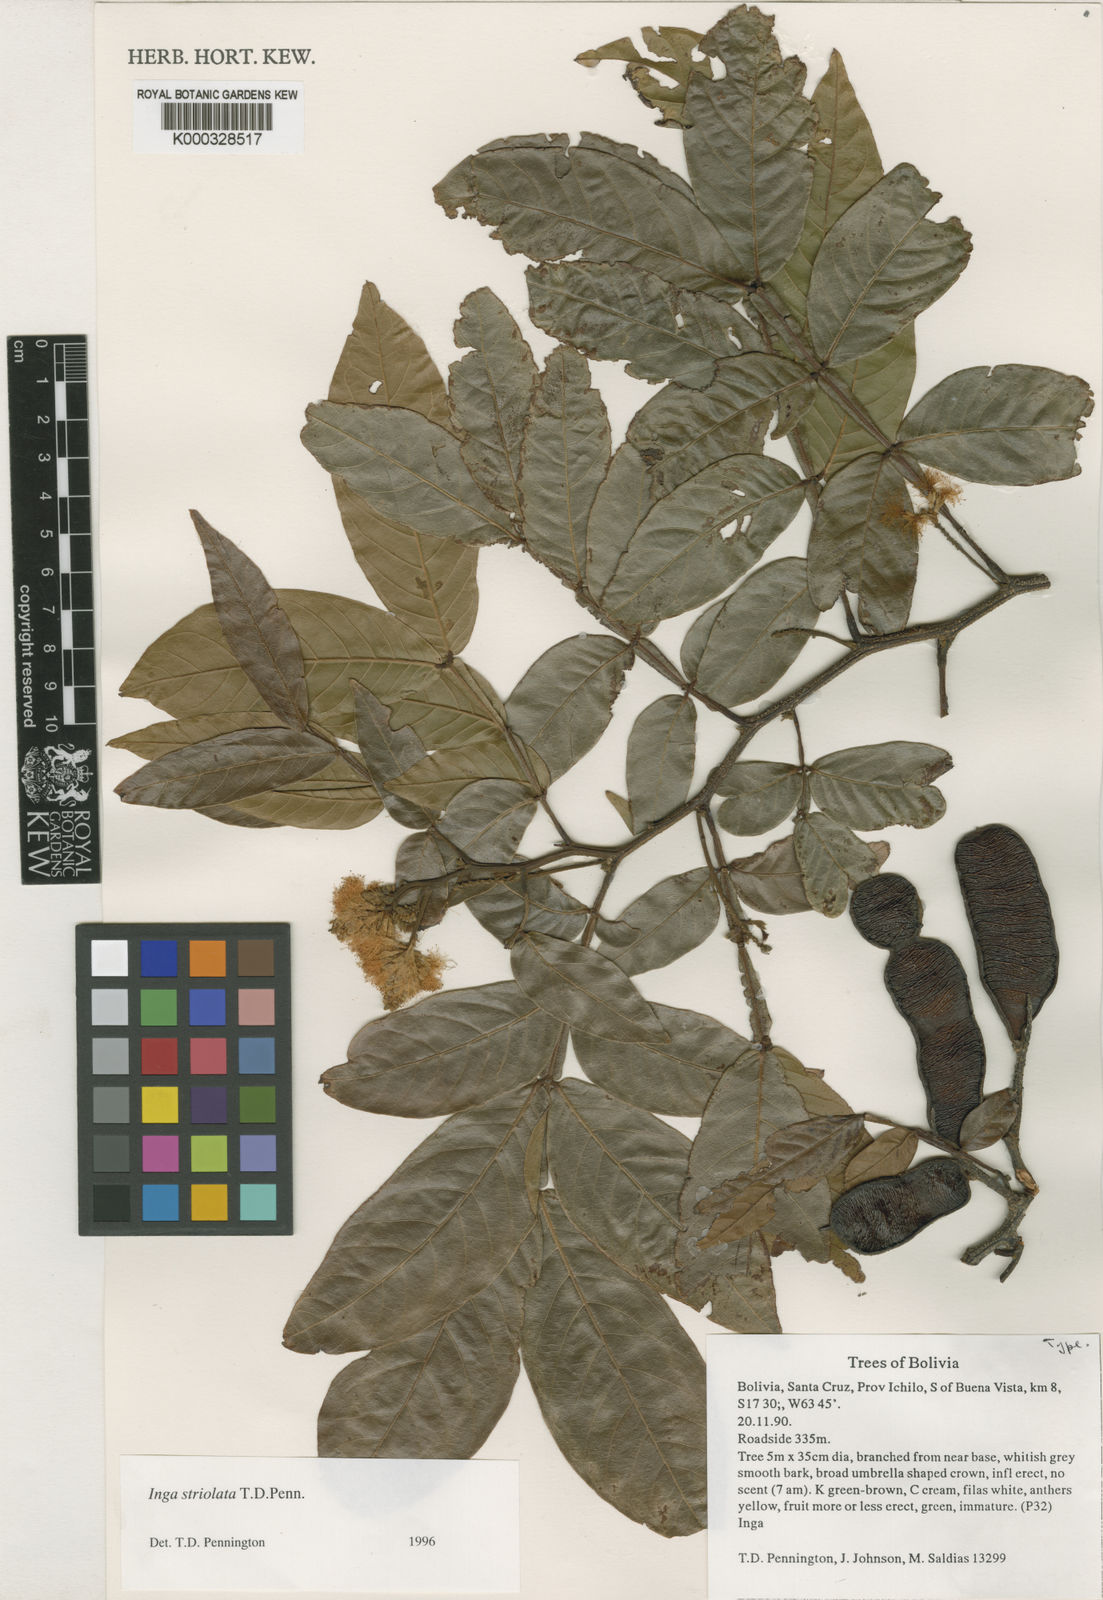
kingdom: Plantae
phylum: Tracheophyta
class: Magnoliopsida
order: Fabales
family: Fabaceae
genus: Inga
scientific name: Inga striolata
